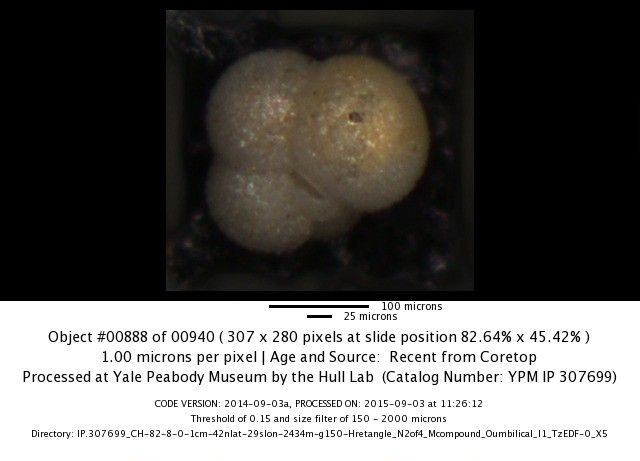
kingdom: Chromista
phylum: Foraminifera
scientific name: Foraminifera
